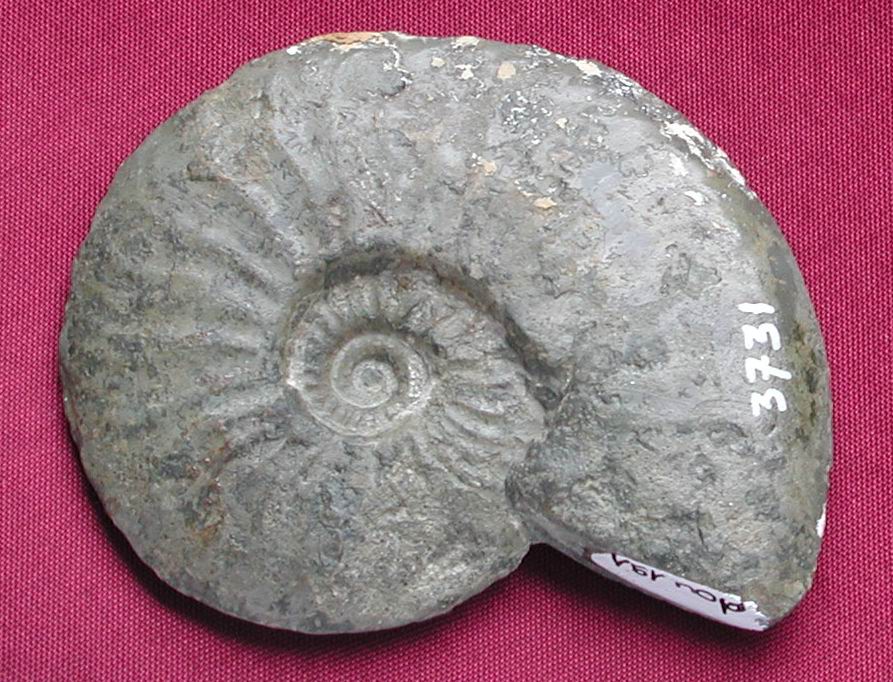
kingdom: Animalia
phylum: Mollusca
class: Cephalopoda
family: Hildoceratidae
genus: Cotteswoldia
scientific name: Cotteswoldia
